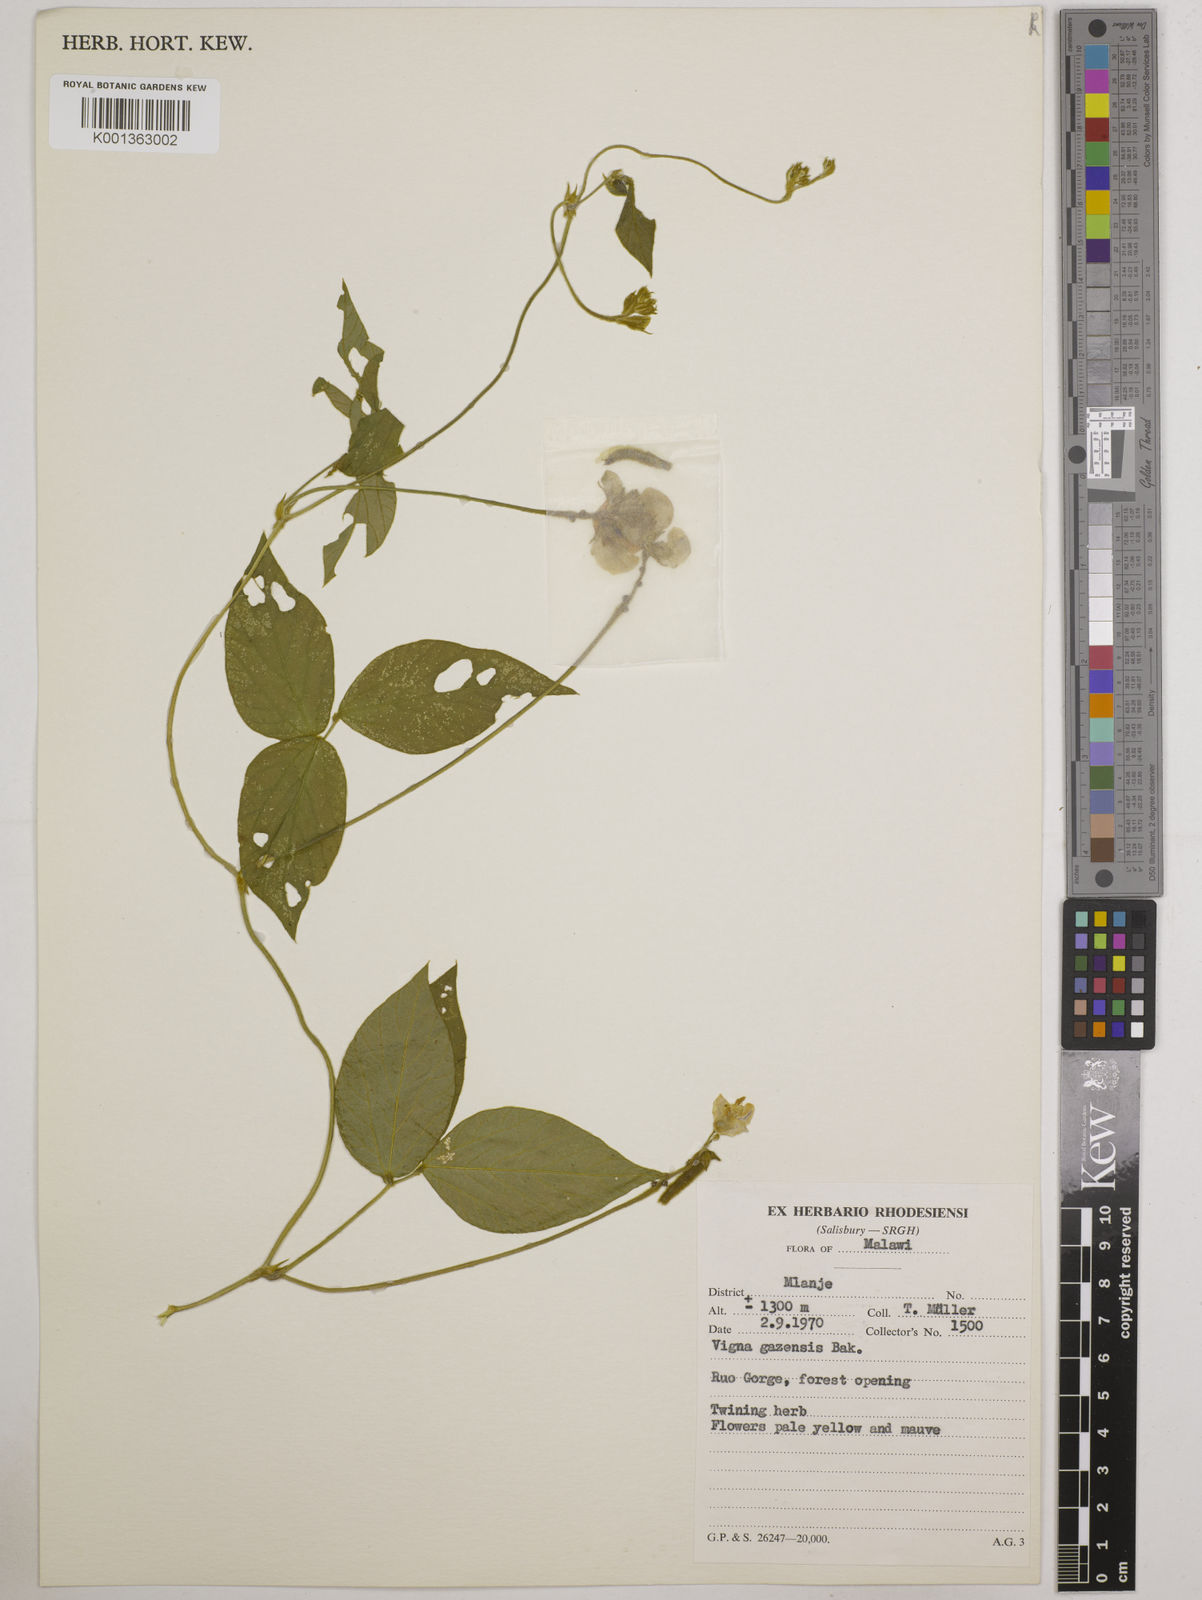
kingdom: Plantae
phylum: Tracheophyta
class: Magnoliopsida
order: Fabales
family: Fabaceae
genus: Vigna
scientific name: Vigna gazensis
